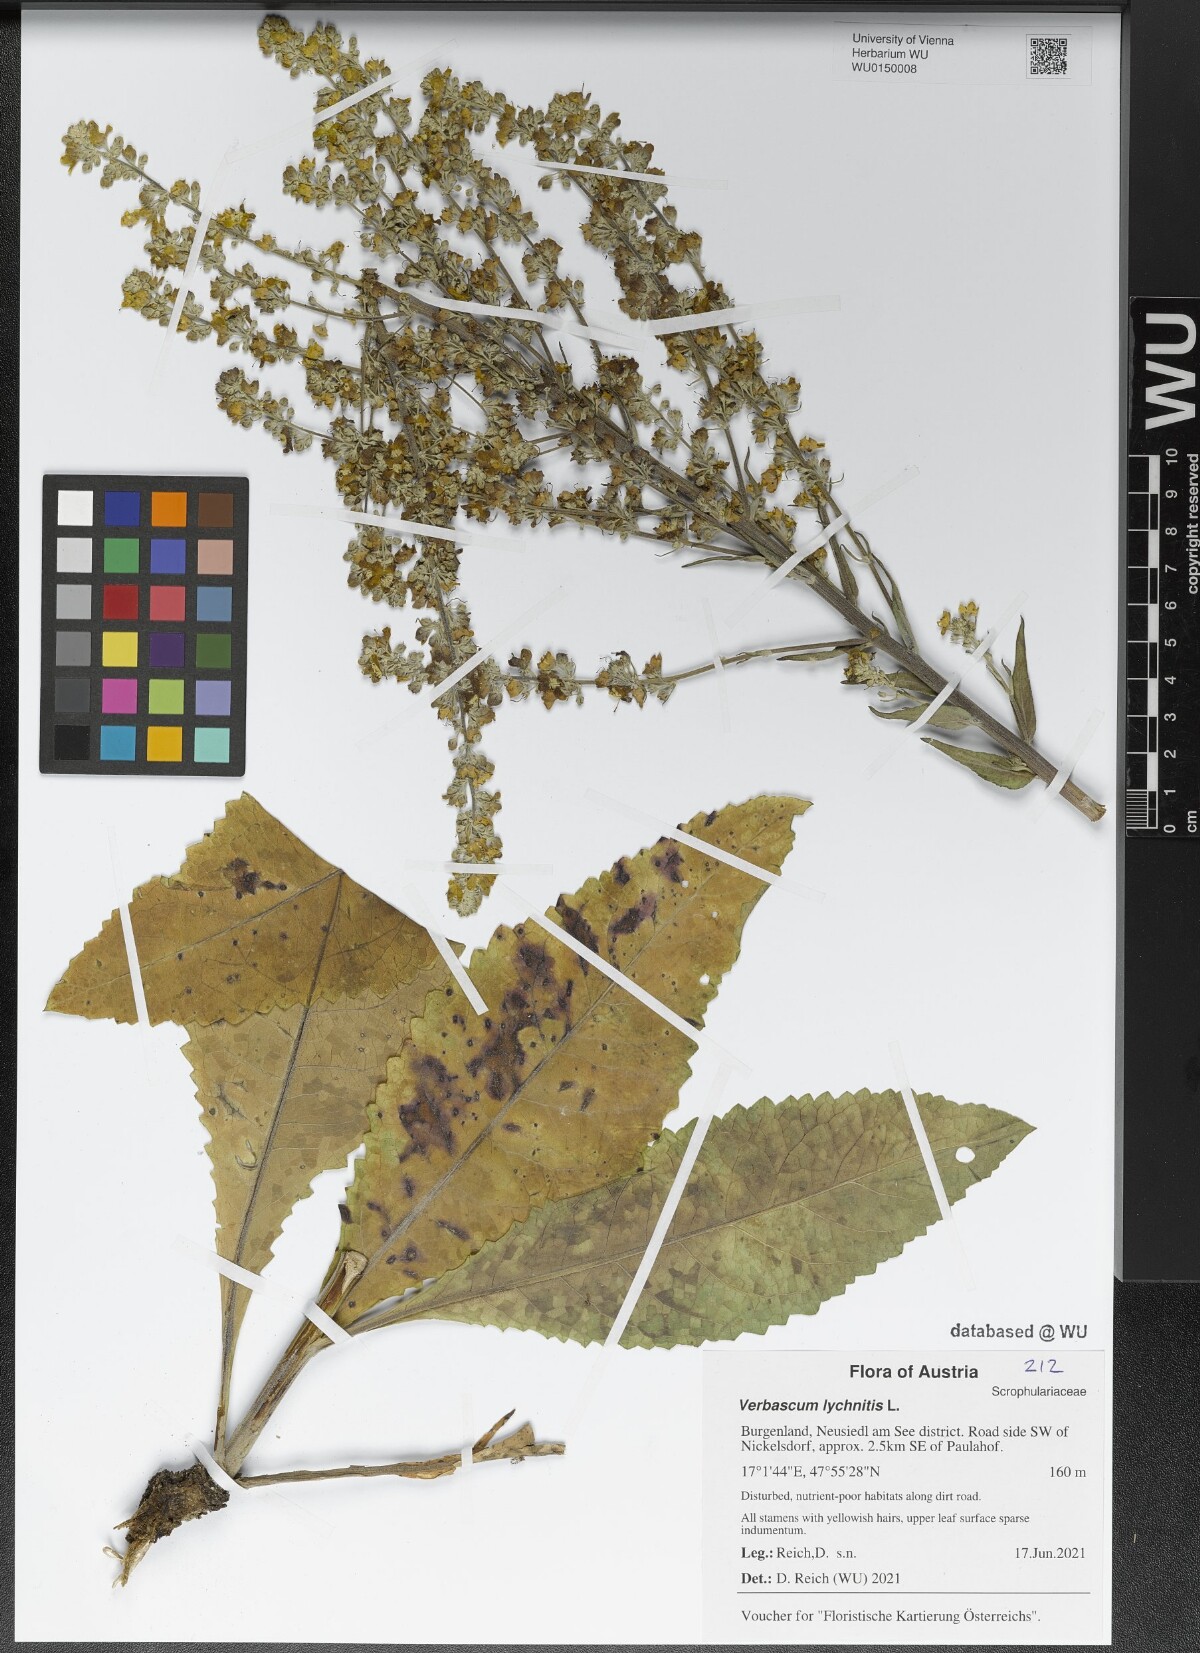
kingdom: Plantae
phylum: Tracheophyta
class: Magnoliopsida
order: Lamiales
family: Scrophulariaceae
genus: Verbascum
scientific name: Verbascum lychnitis
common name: White mullein
